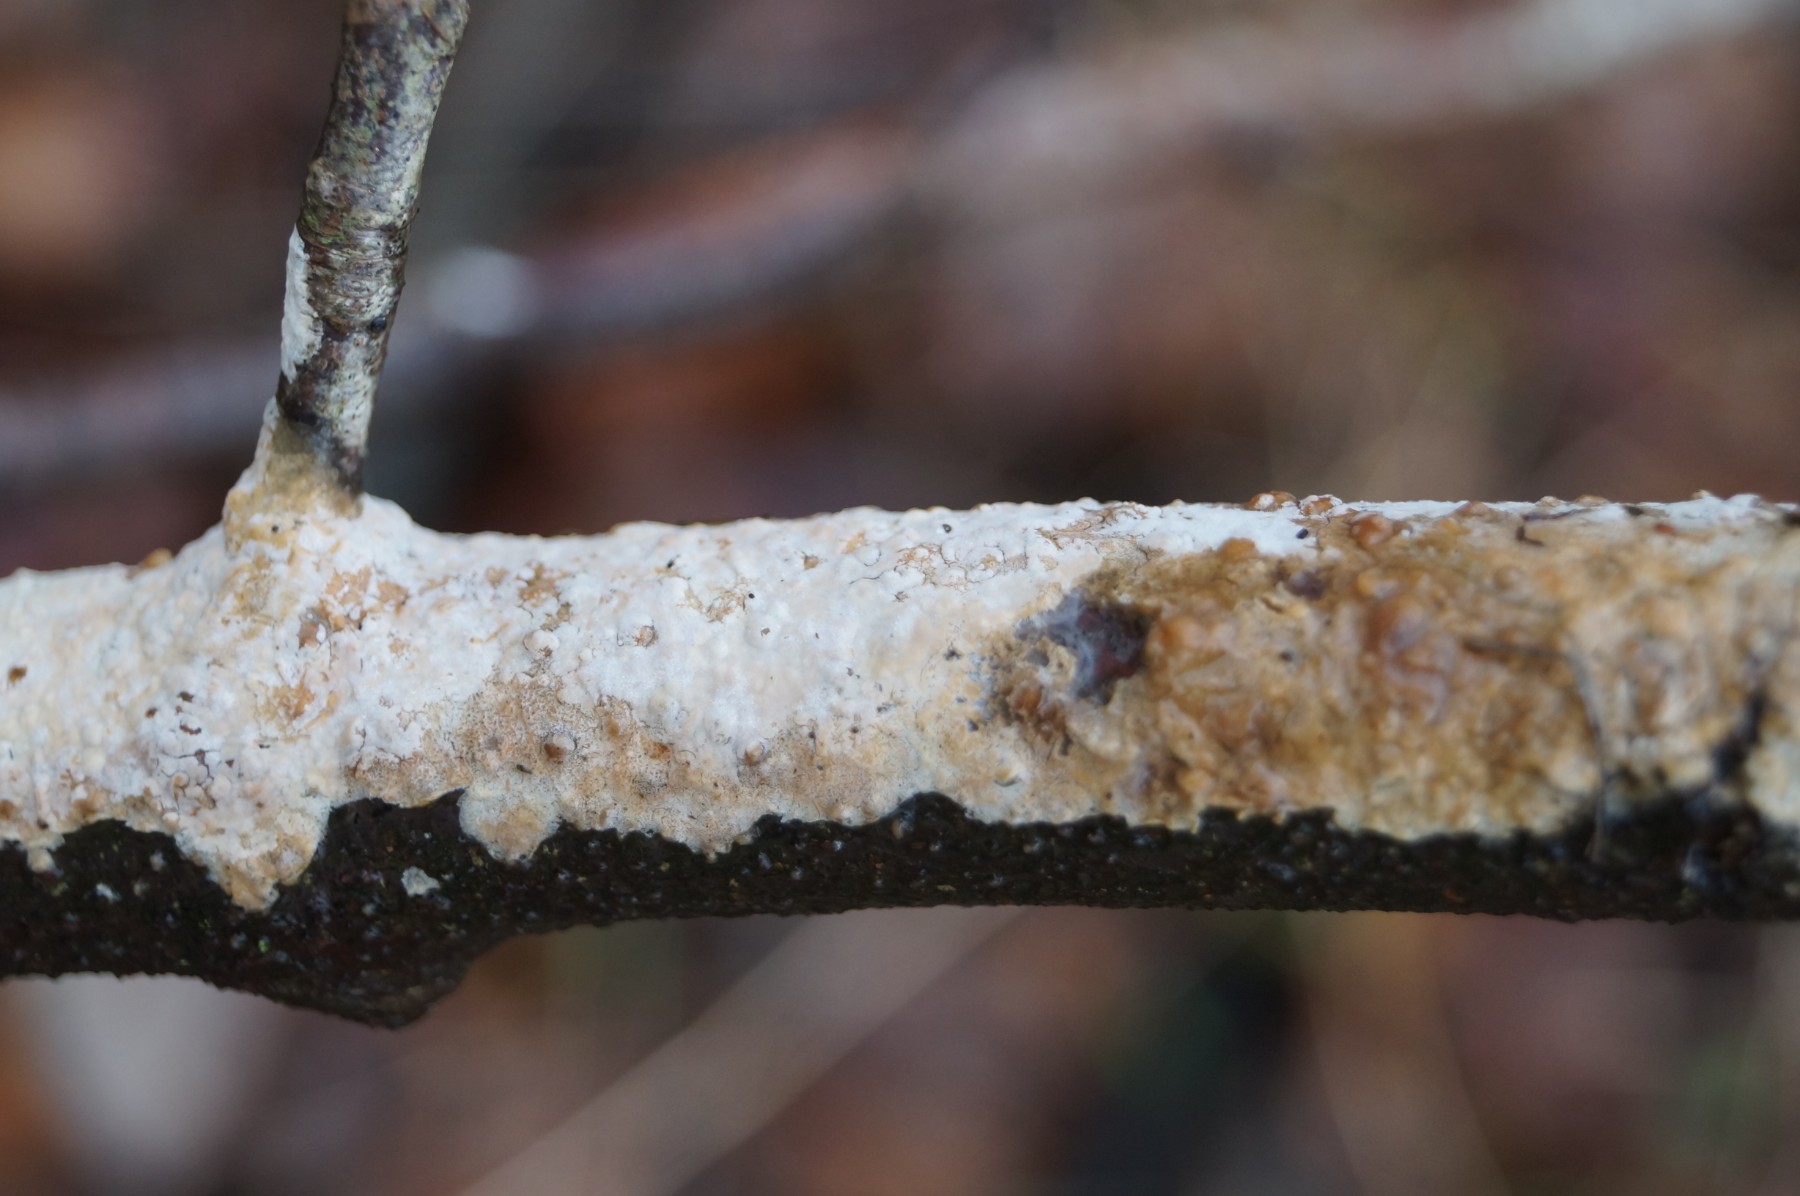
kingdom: Fungi
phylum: Basidiomycota
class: Agaricomycetes
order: Corticiales
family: Corticiaceae
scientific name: Corticiaceae
